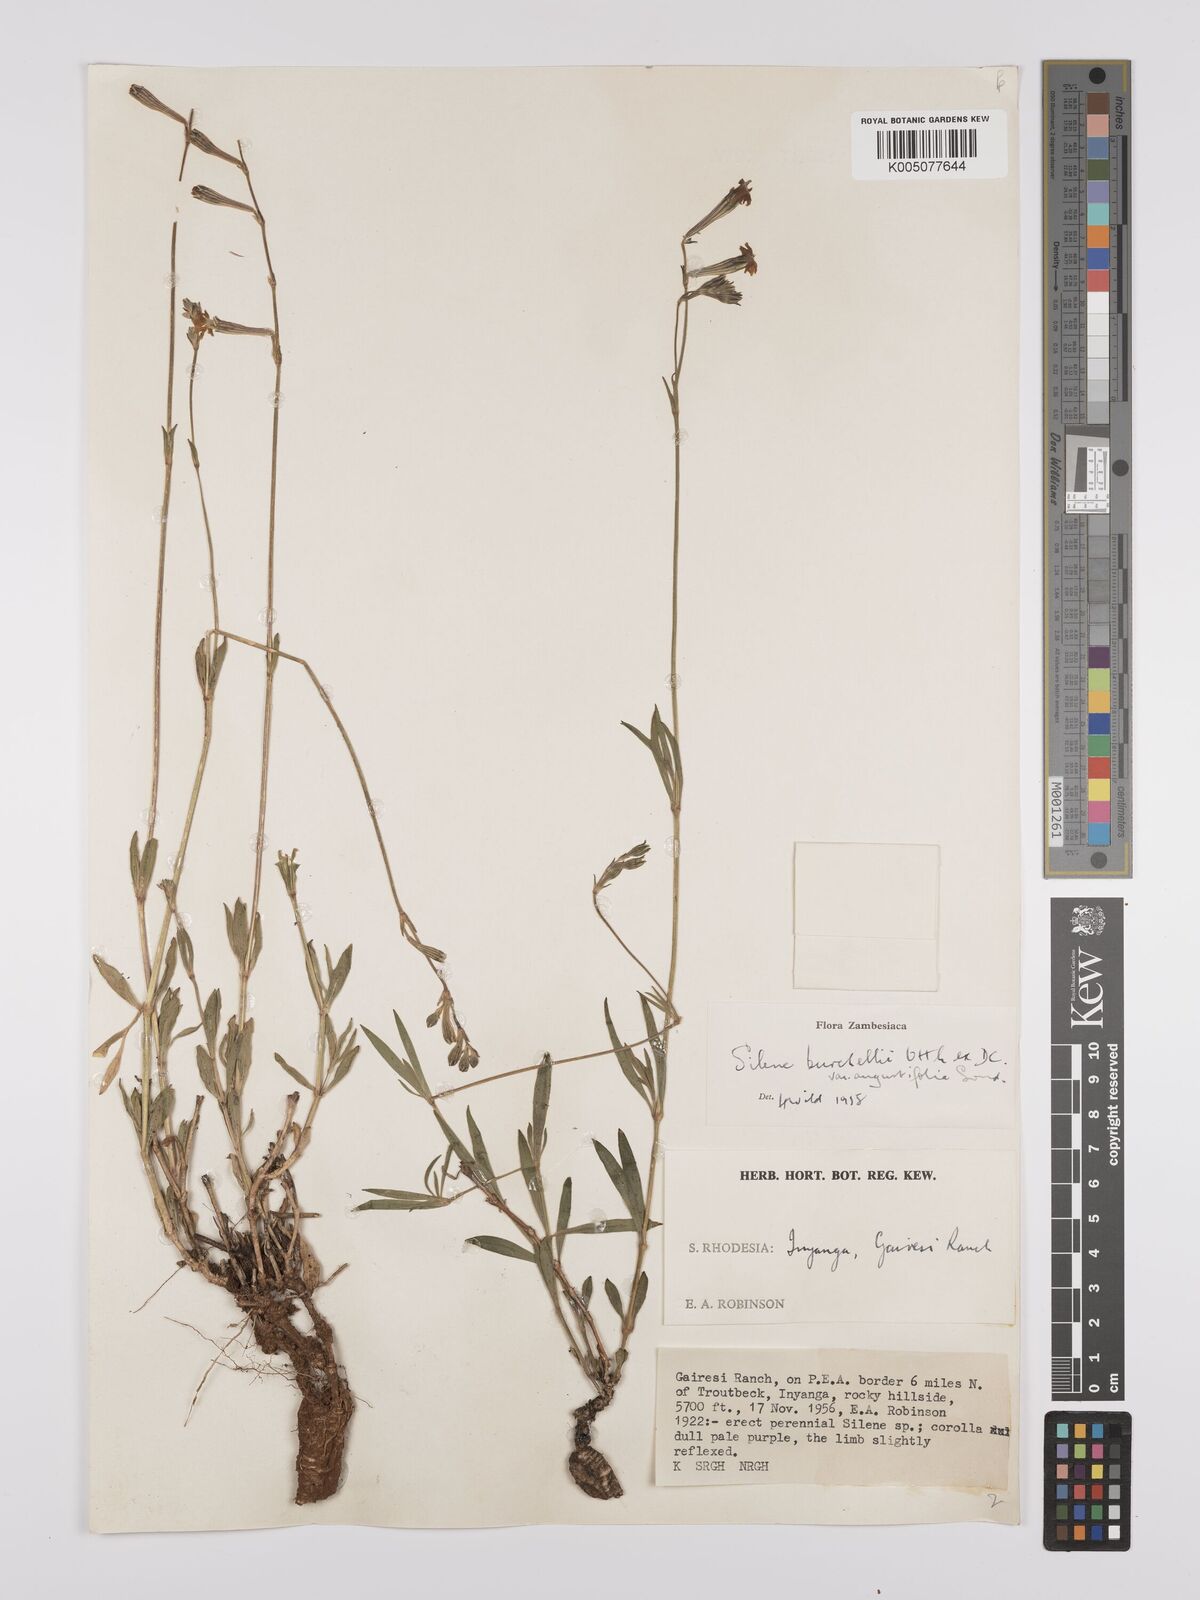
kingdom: Plantae
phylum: Tracheophyta
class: Magnoliopsida
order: Caryophyllales
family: Caryophyllaceae
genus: Silene
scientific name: Silene burchellii
